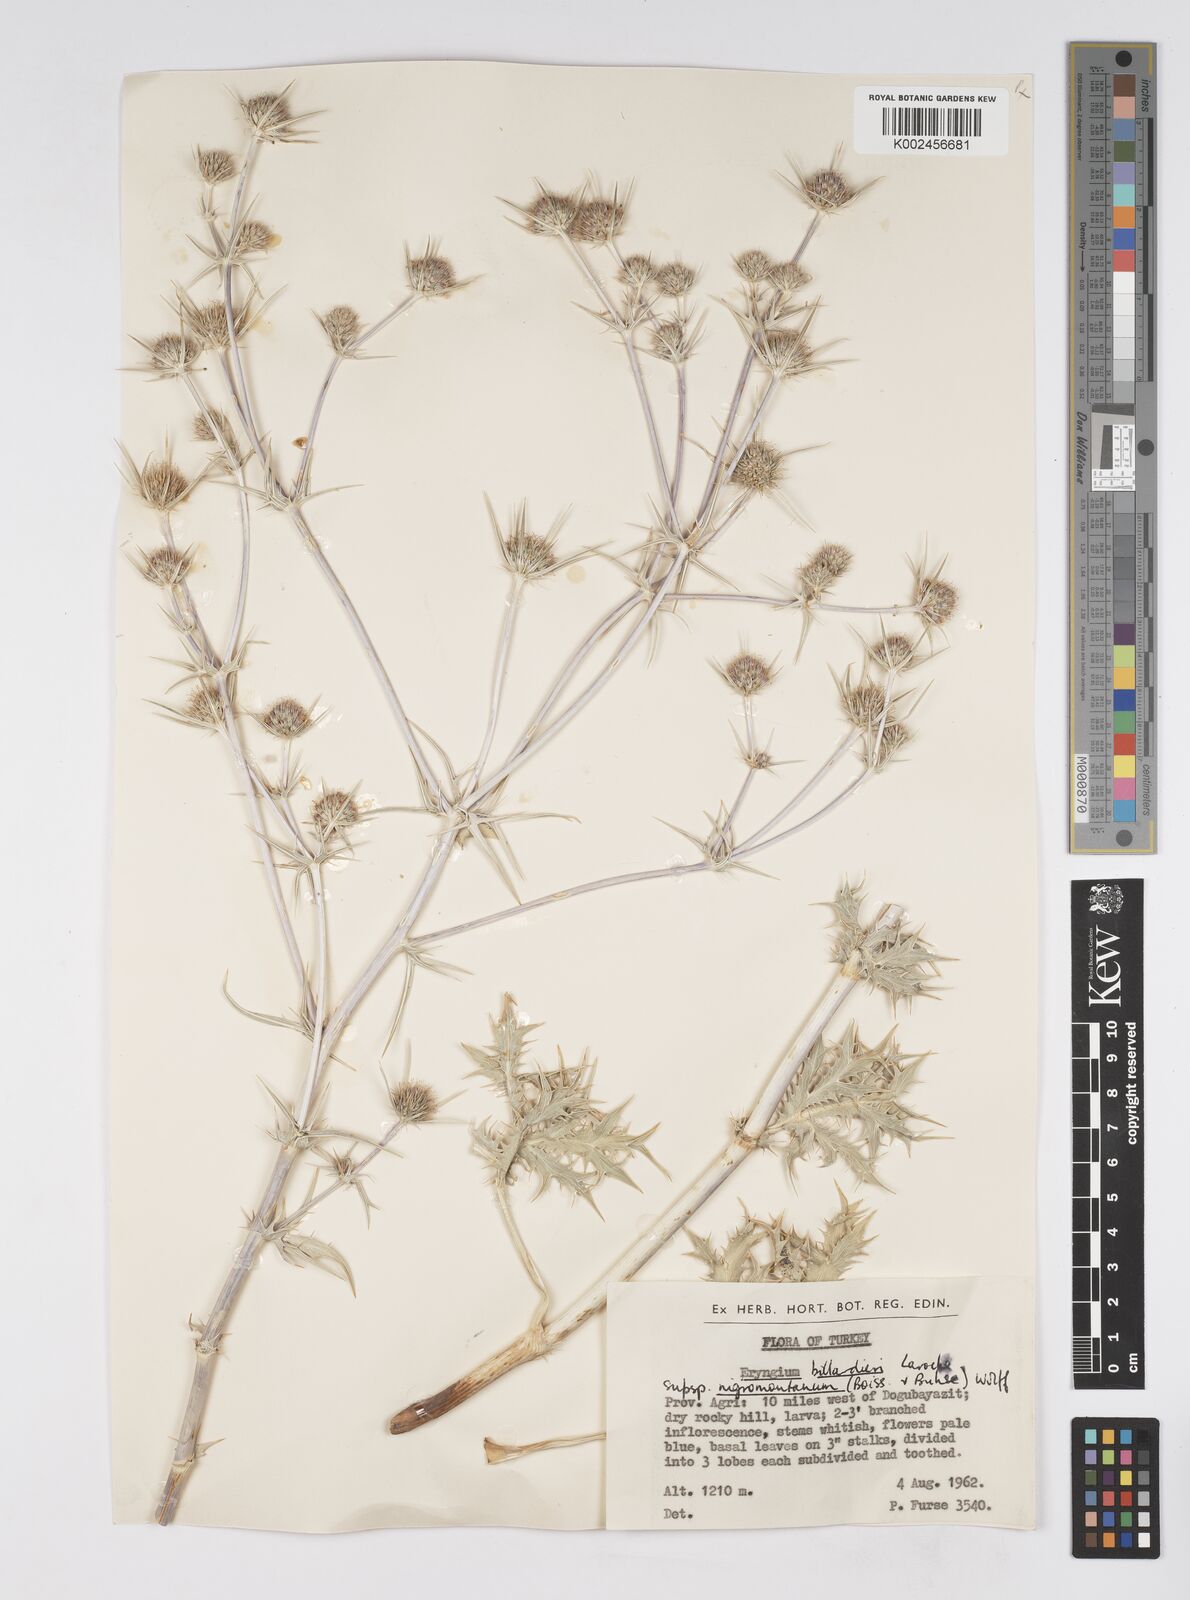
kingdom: Plantae
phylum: Tracheophyta
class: Magnoliopsida
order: Apiales
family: Apiaceae
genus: Eryngium
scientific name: Eryngium billardierei
